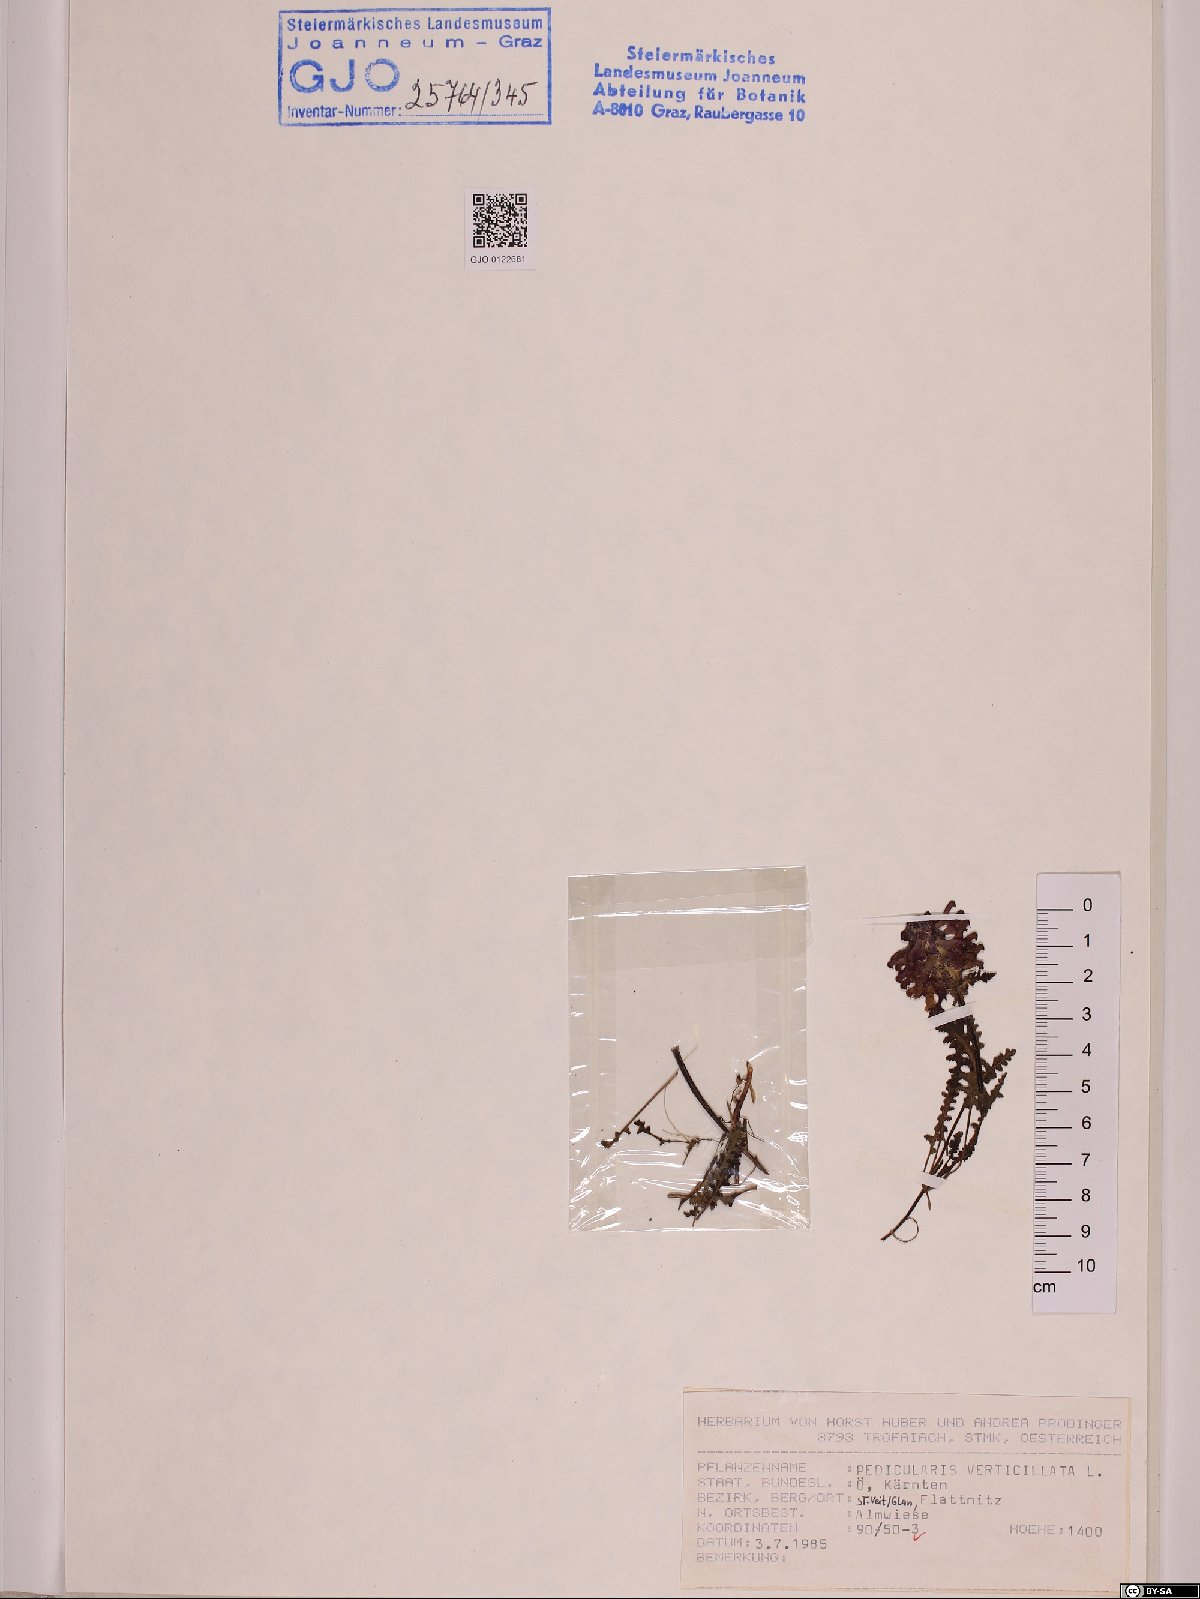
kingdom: Plantae
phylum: Tracheophyta
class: Magnoliopsida
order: Lamiales
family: Orobanchaceae
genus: Pedicularis
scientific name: Pedicularis verticillata
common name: Whorled lousewort
